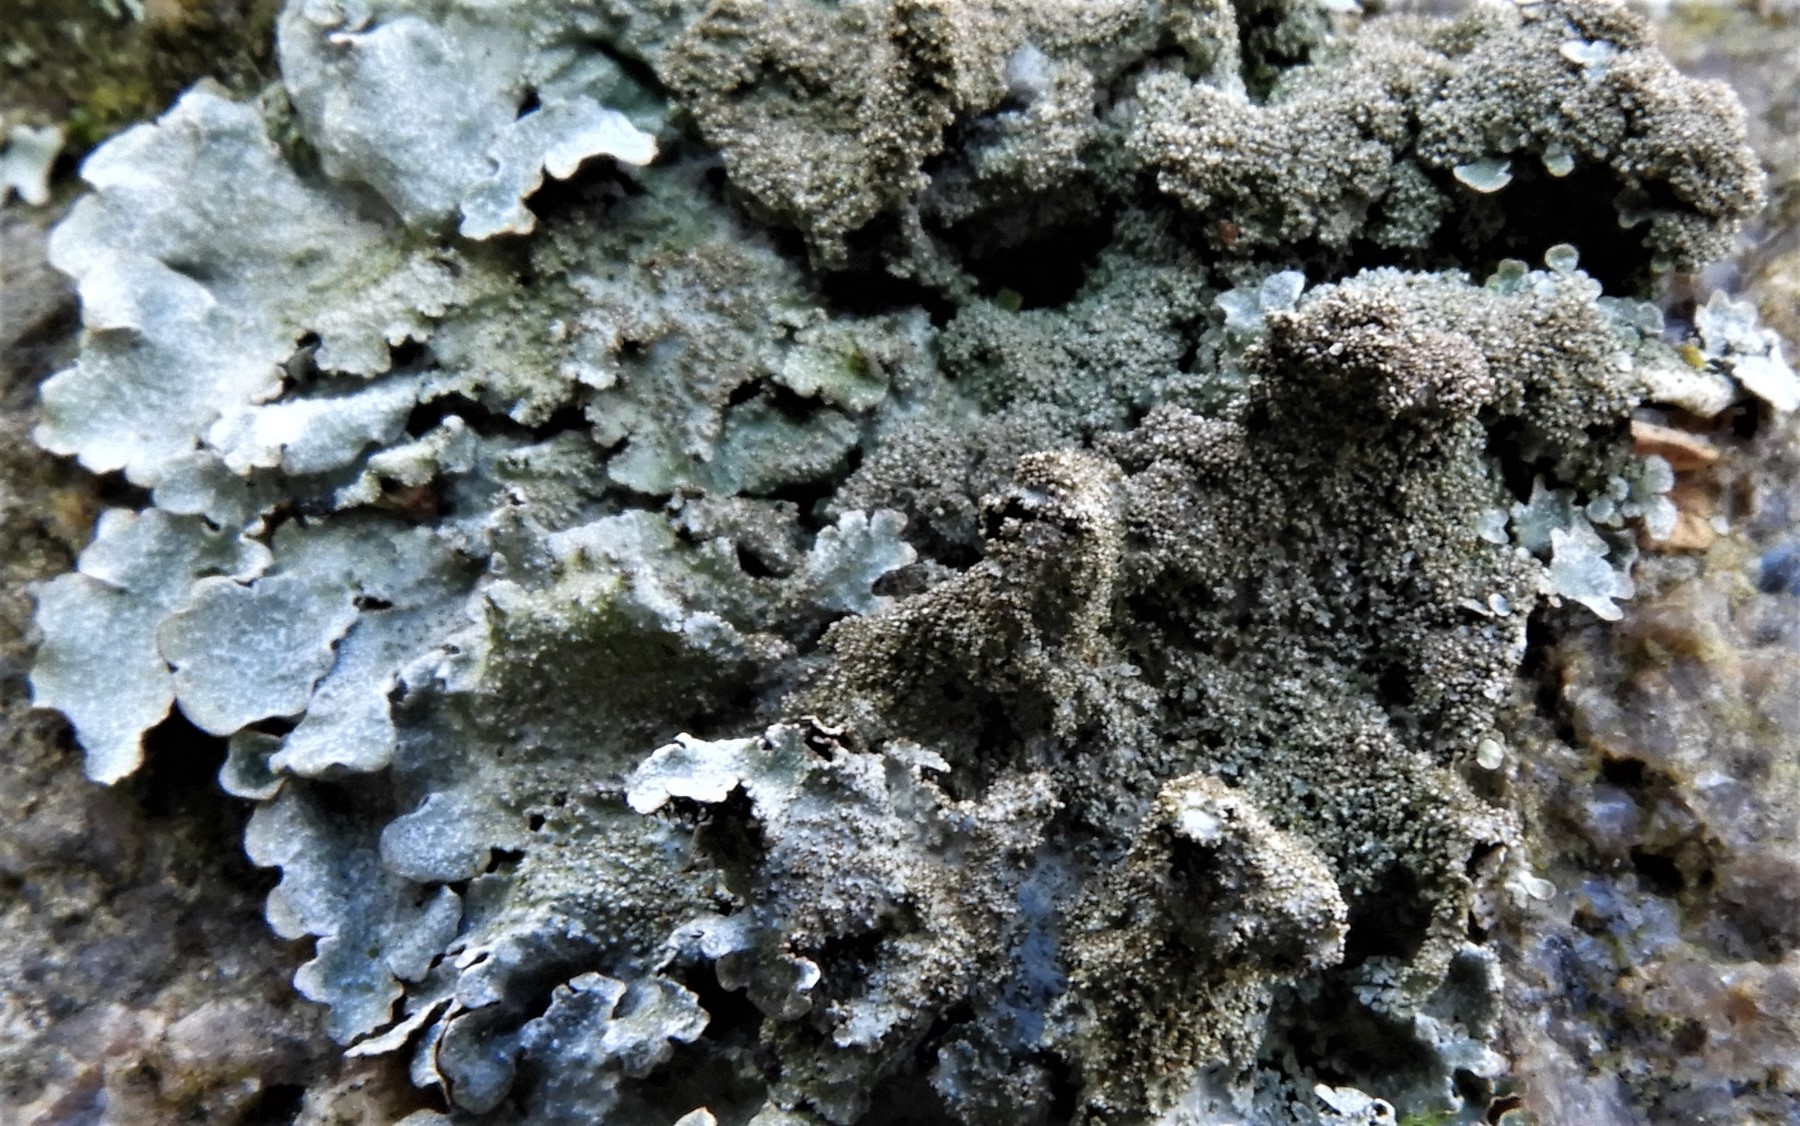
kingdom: Fungi
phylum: Ascomycota
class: Lecanoromycetes
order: Lecanorales
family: Parmeliaceae
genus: Parmelia
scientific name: Parmelia saxatilis
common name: farve-skållav
